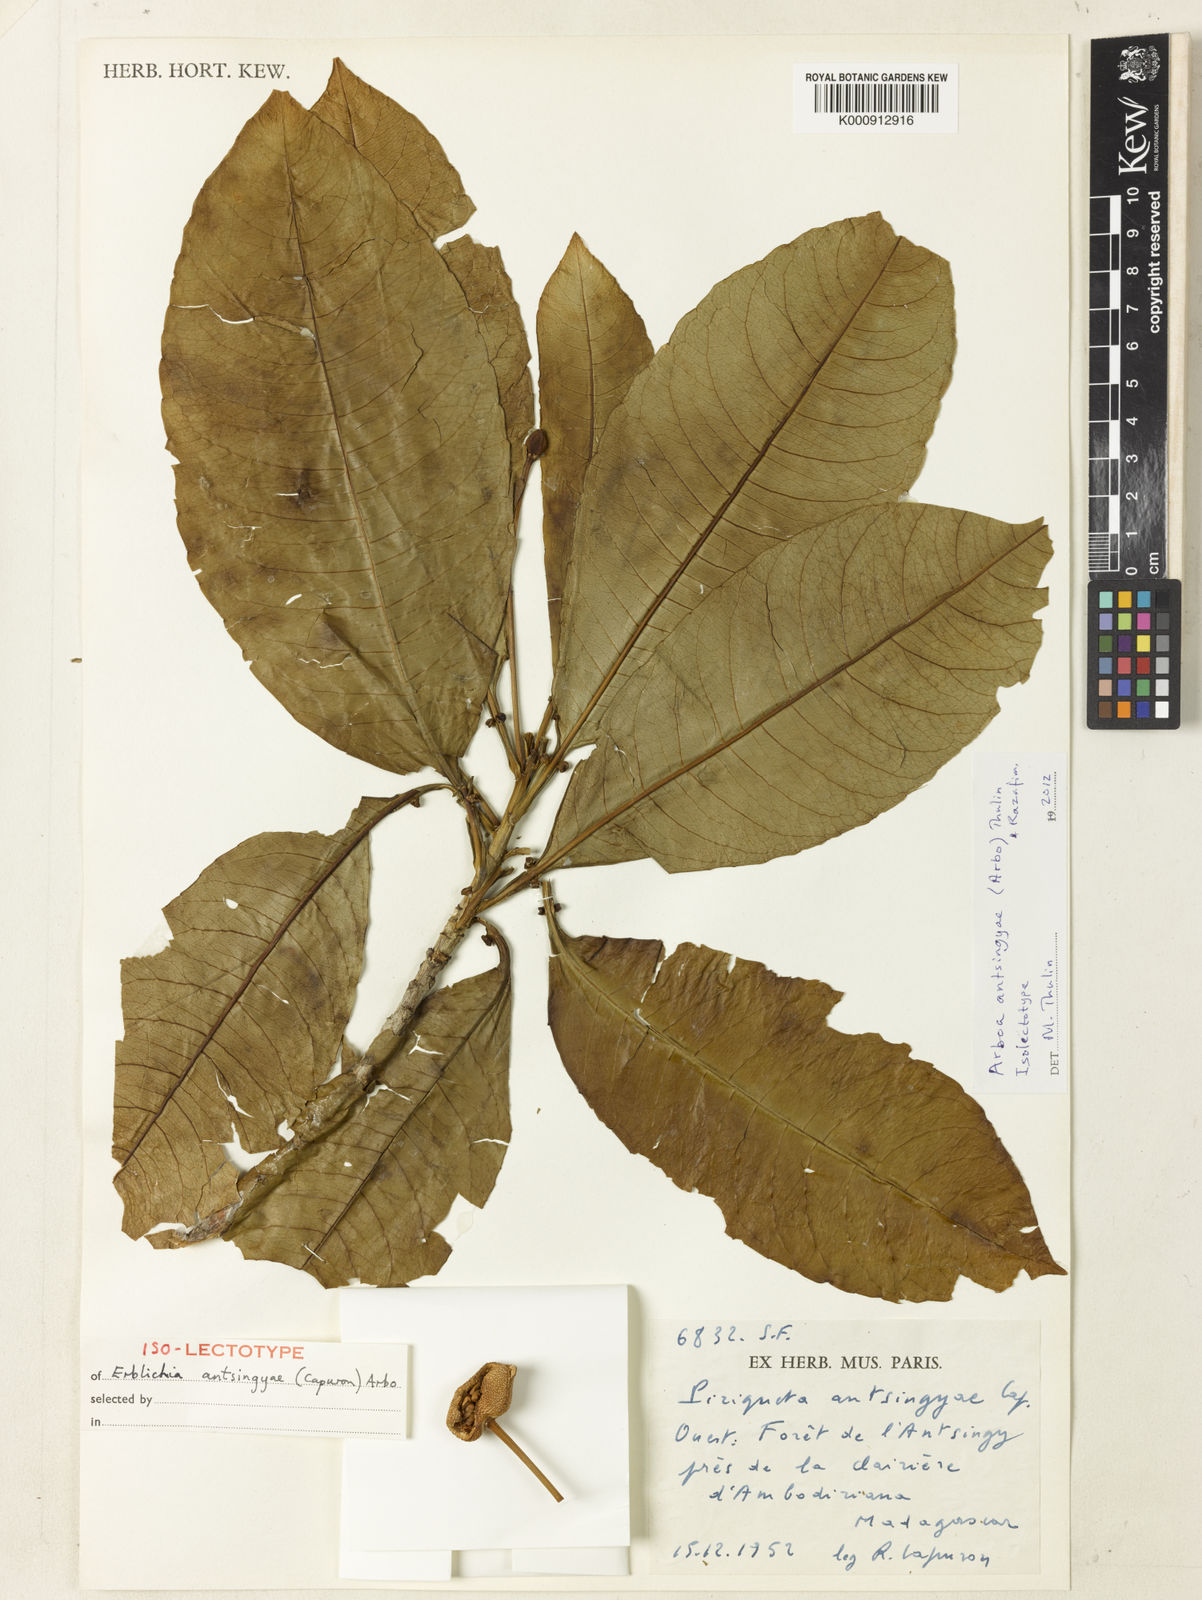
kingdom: Plantae
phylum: Tracheophyta
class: Magnoliopsida
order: Malpighiales
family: Turneraceae
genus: Arboa
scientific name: Arboa antsingyae
